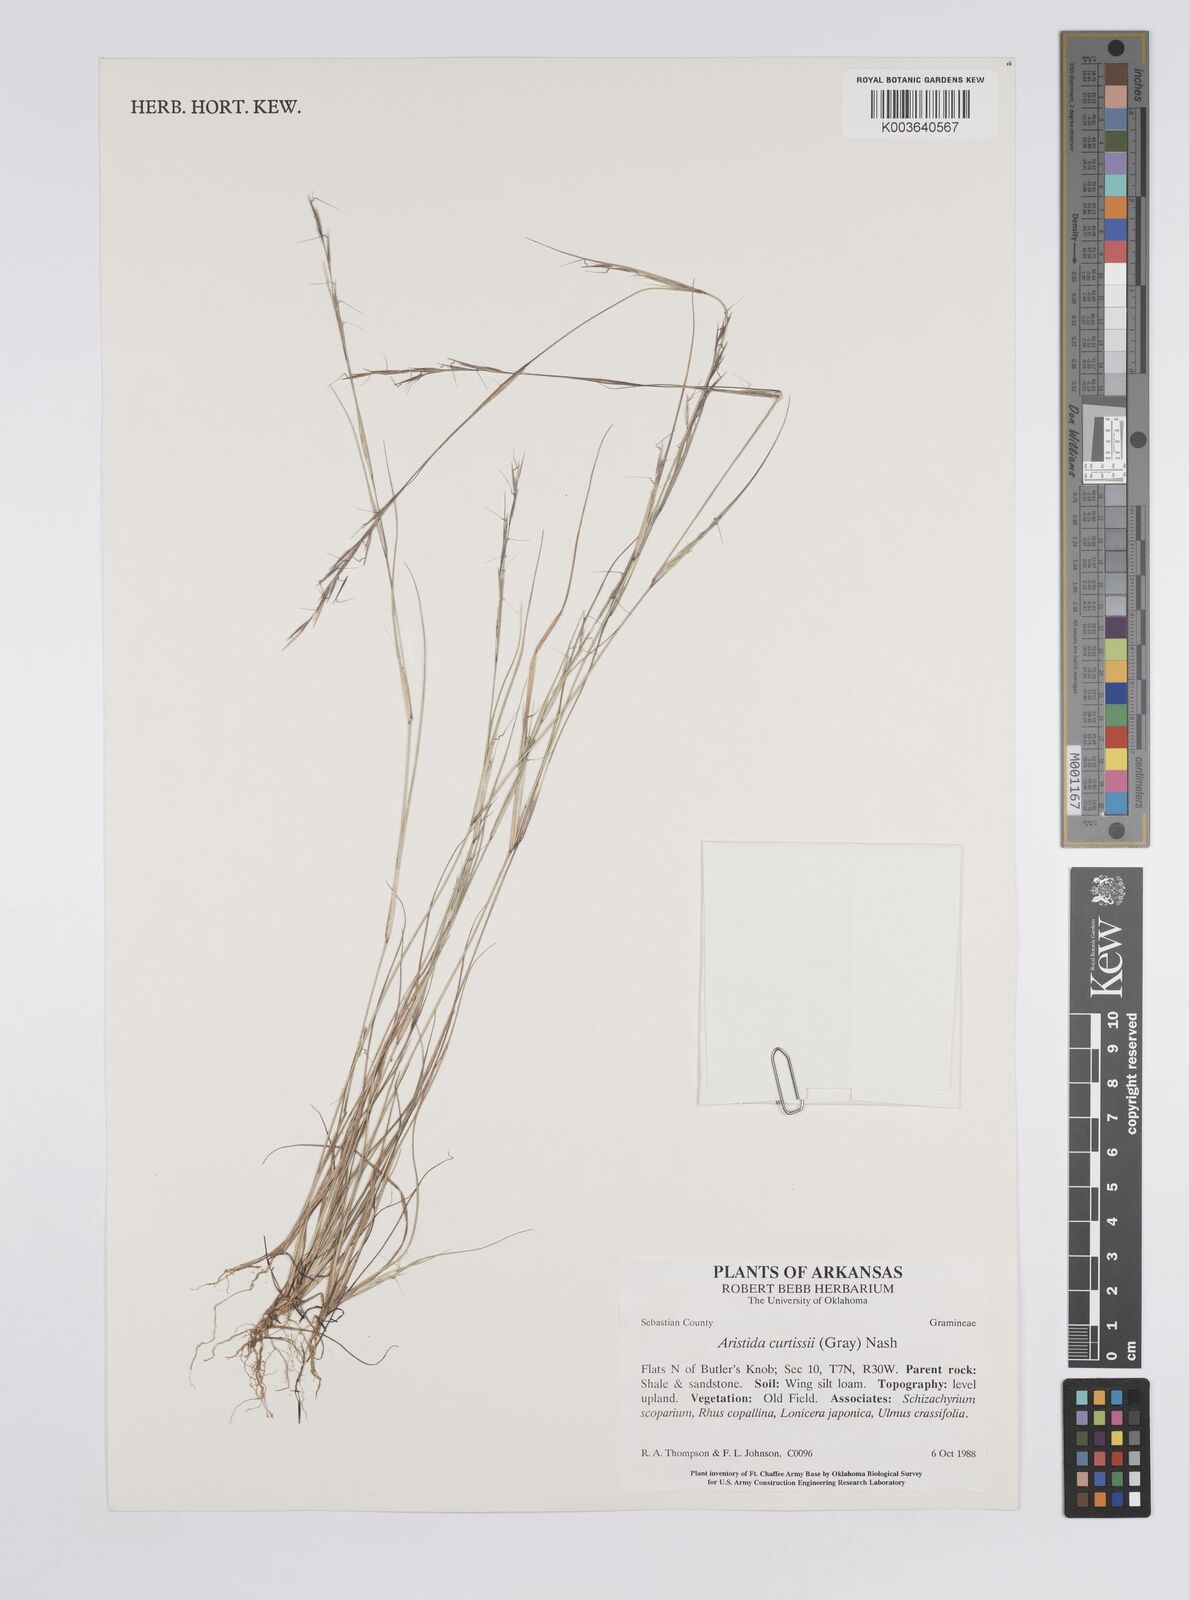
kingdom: Plantae
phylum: Tracheophyta
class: Liliopsida
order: Poales
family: Poaceae
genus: Aristida
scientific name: Aristida dichotoma
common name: Churchmouse three-awn
